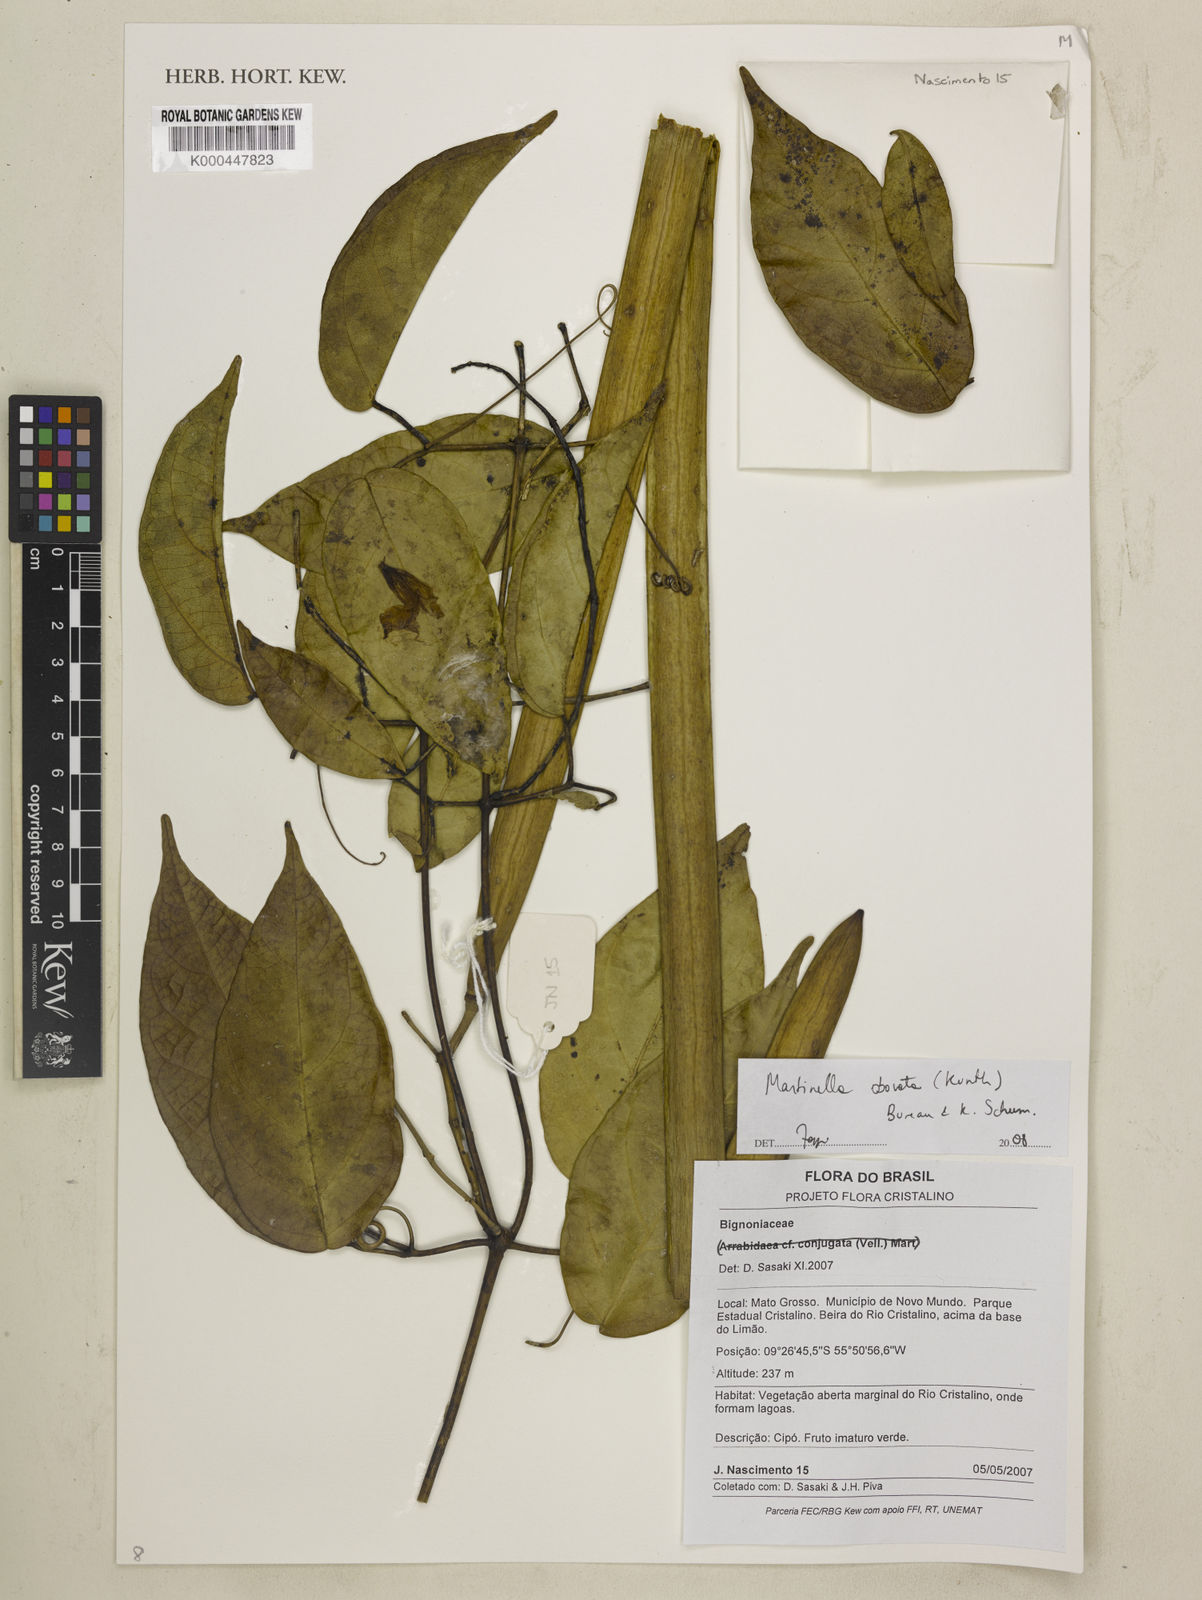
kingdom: Animalia
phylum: Arthropoda
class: Insecta
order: Coleoptera
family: Chrysomelidae
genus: Martinella
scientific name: Martinella obovata
